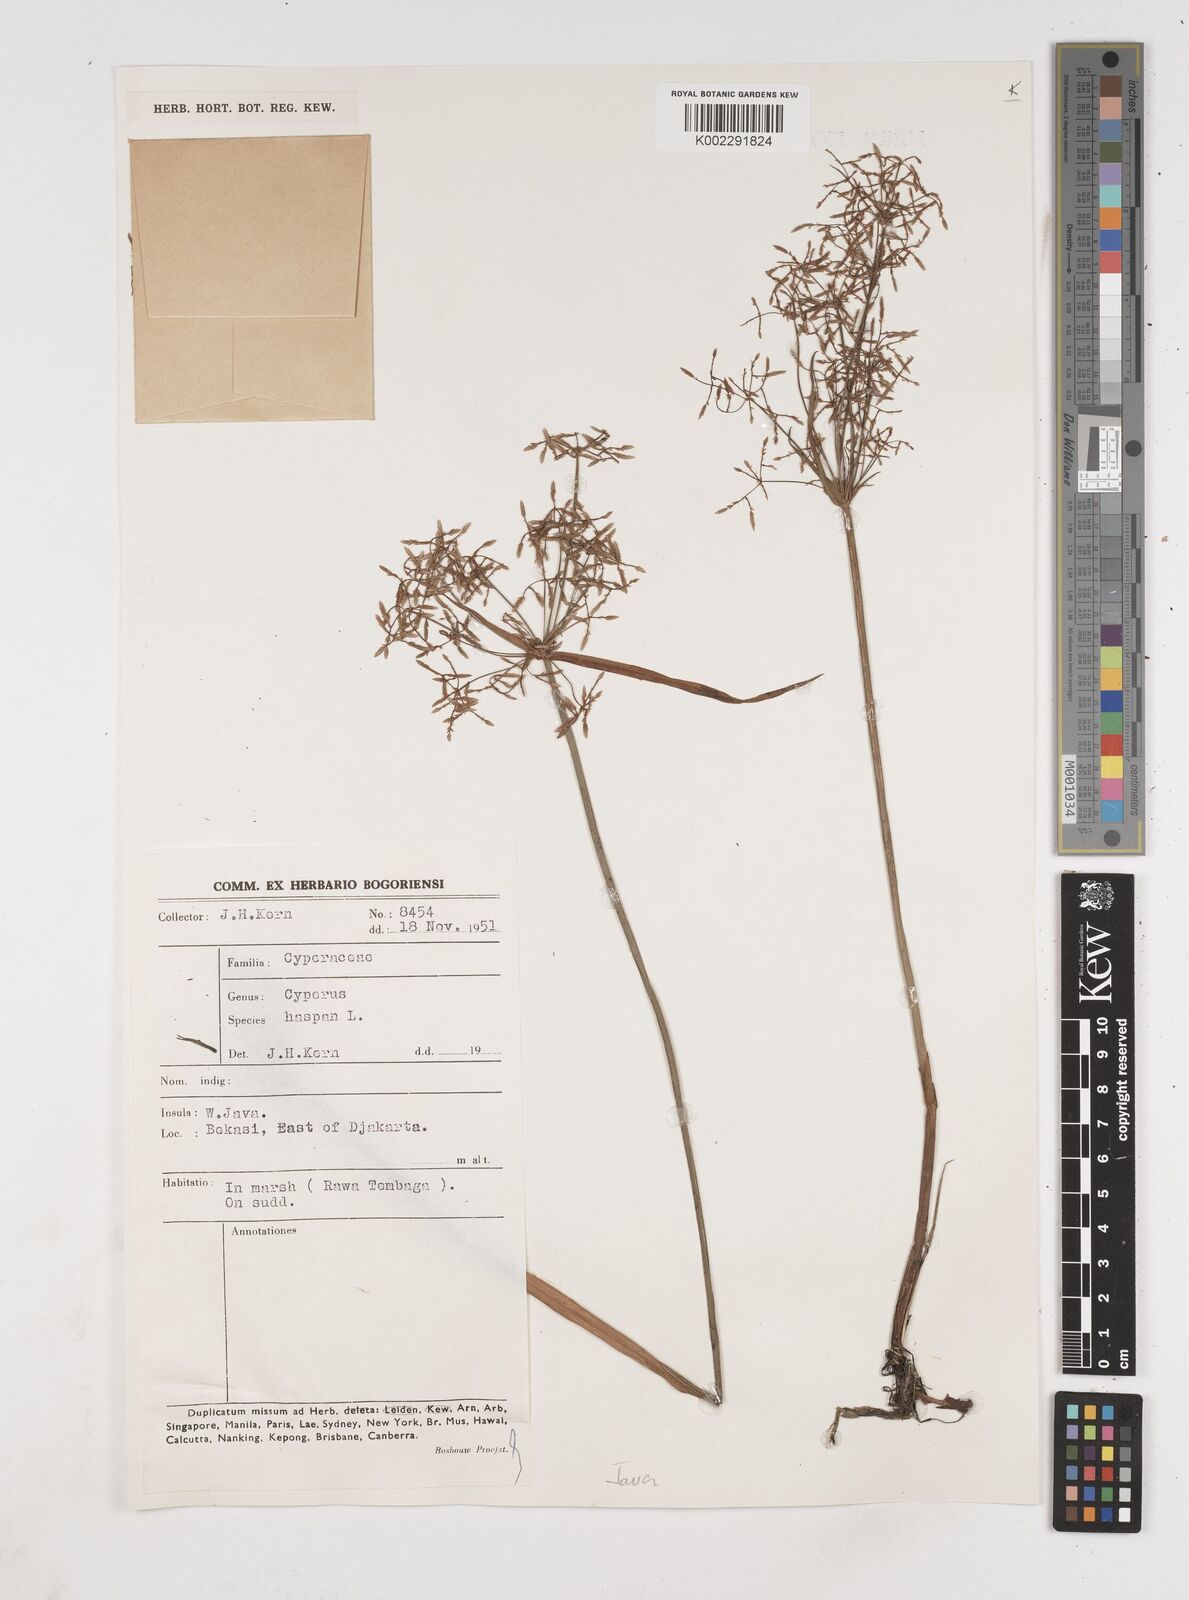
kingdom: Plantae
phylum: Tracheophyta
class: Liliopsida
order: Poales
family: Cyperaceae
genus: Cyperus
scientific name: Cyperus haspan
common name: Haspan flatsedge
